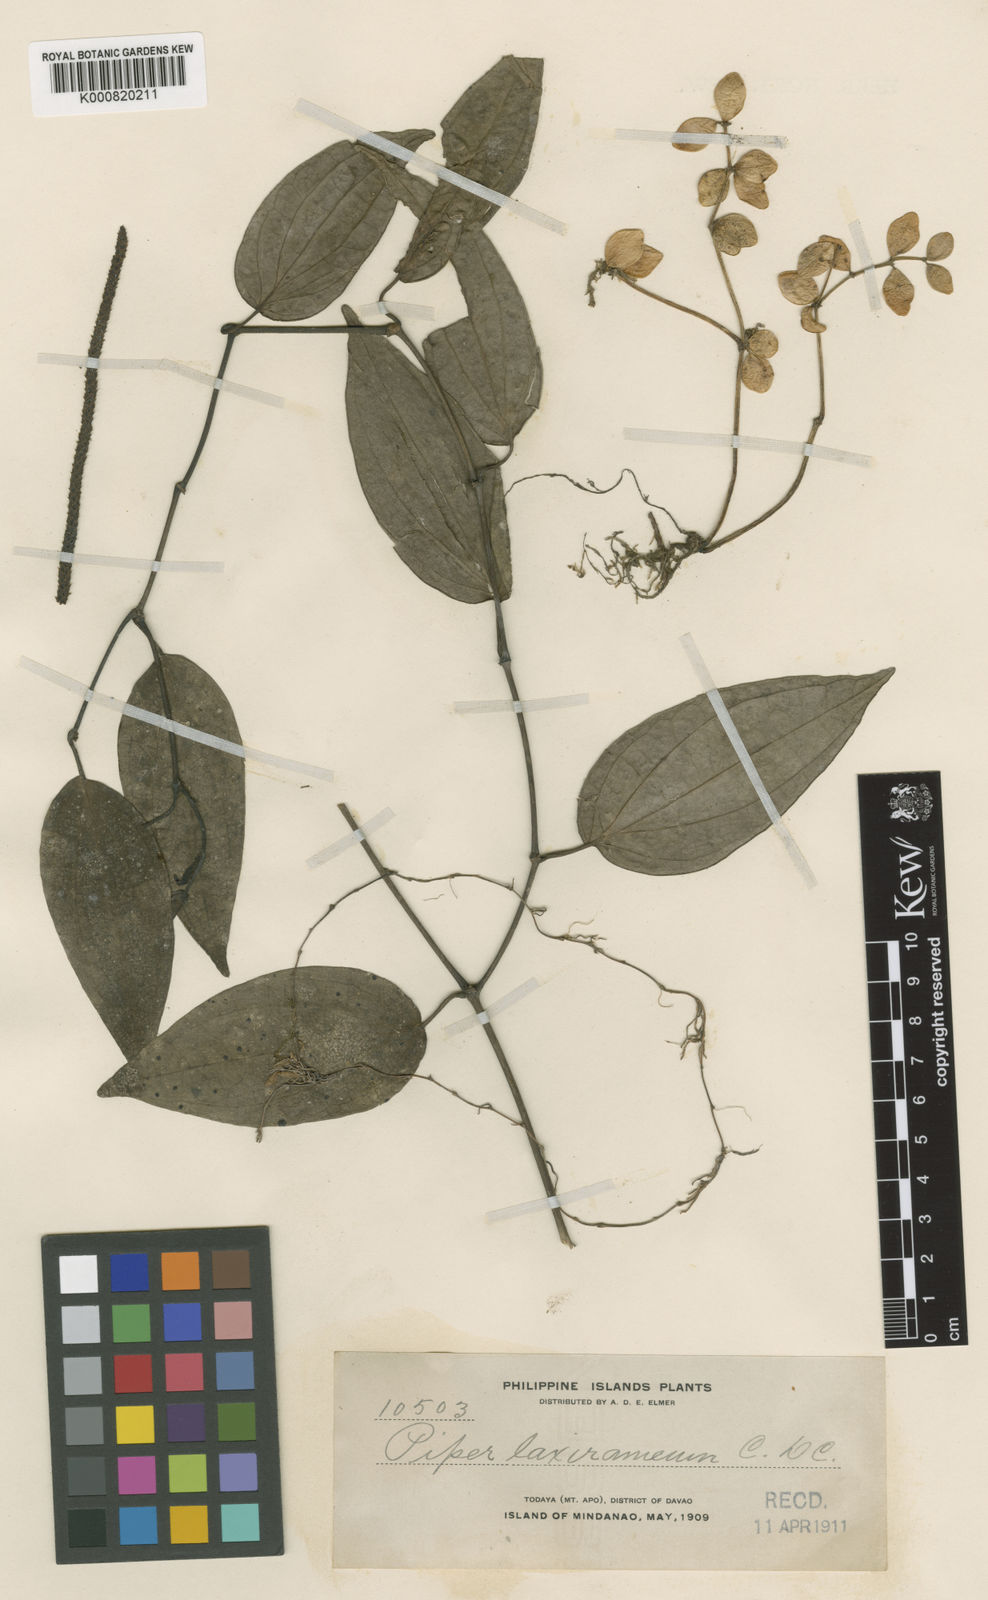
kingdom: Plantae
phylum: Tracheophyta
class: Magnoliopsida
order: Piperales
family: Piperaceae
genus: Piper
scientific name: Piper davaoense
